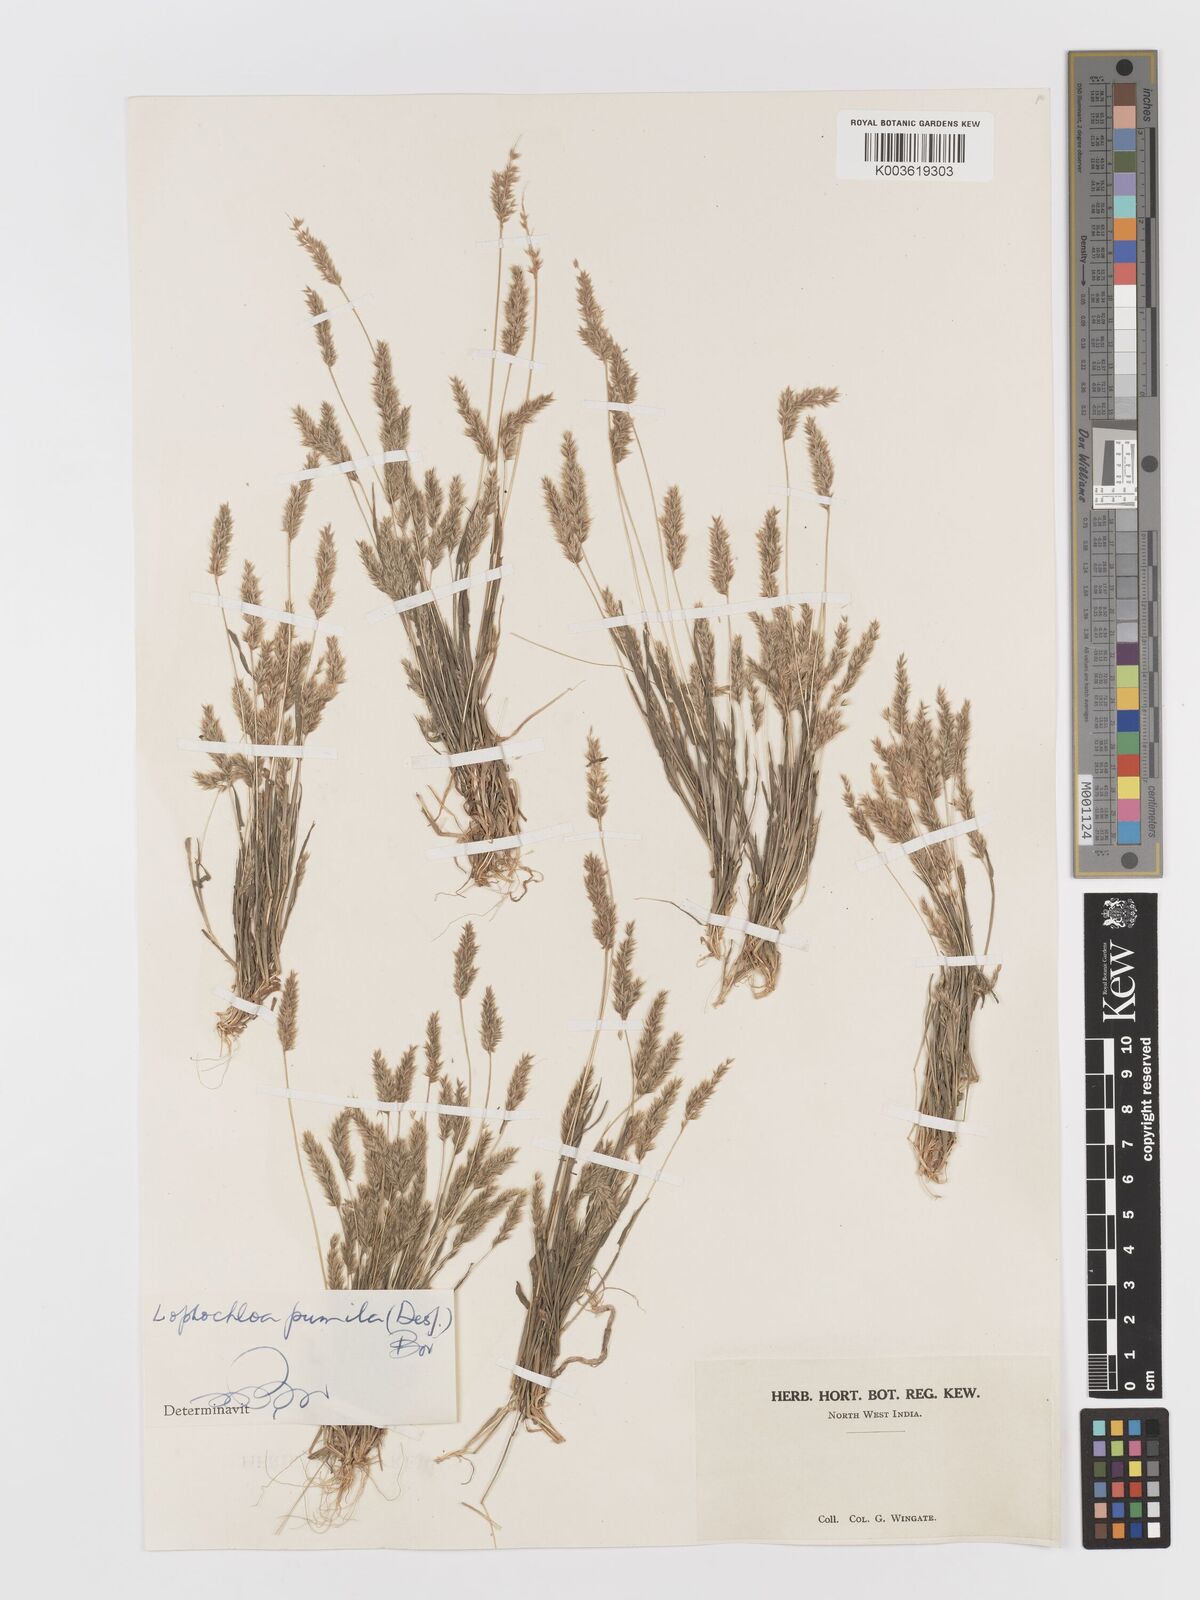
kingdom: Plantae
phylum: Tracheophyta
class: Liliopsida
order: Poales
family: Poaceae
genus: Rostraria
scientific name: Rostraria pumila
